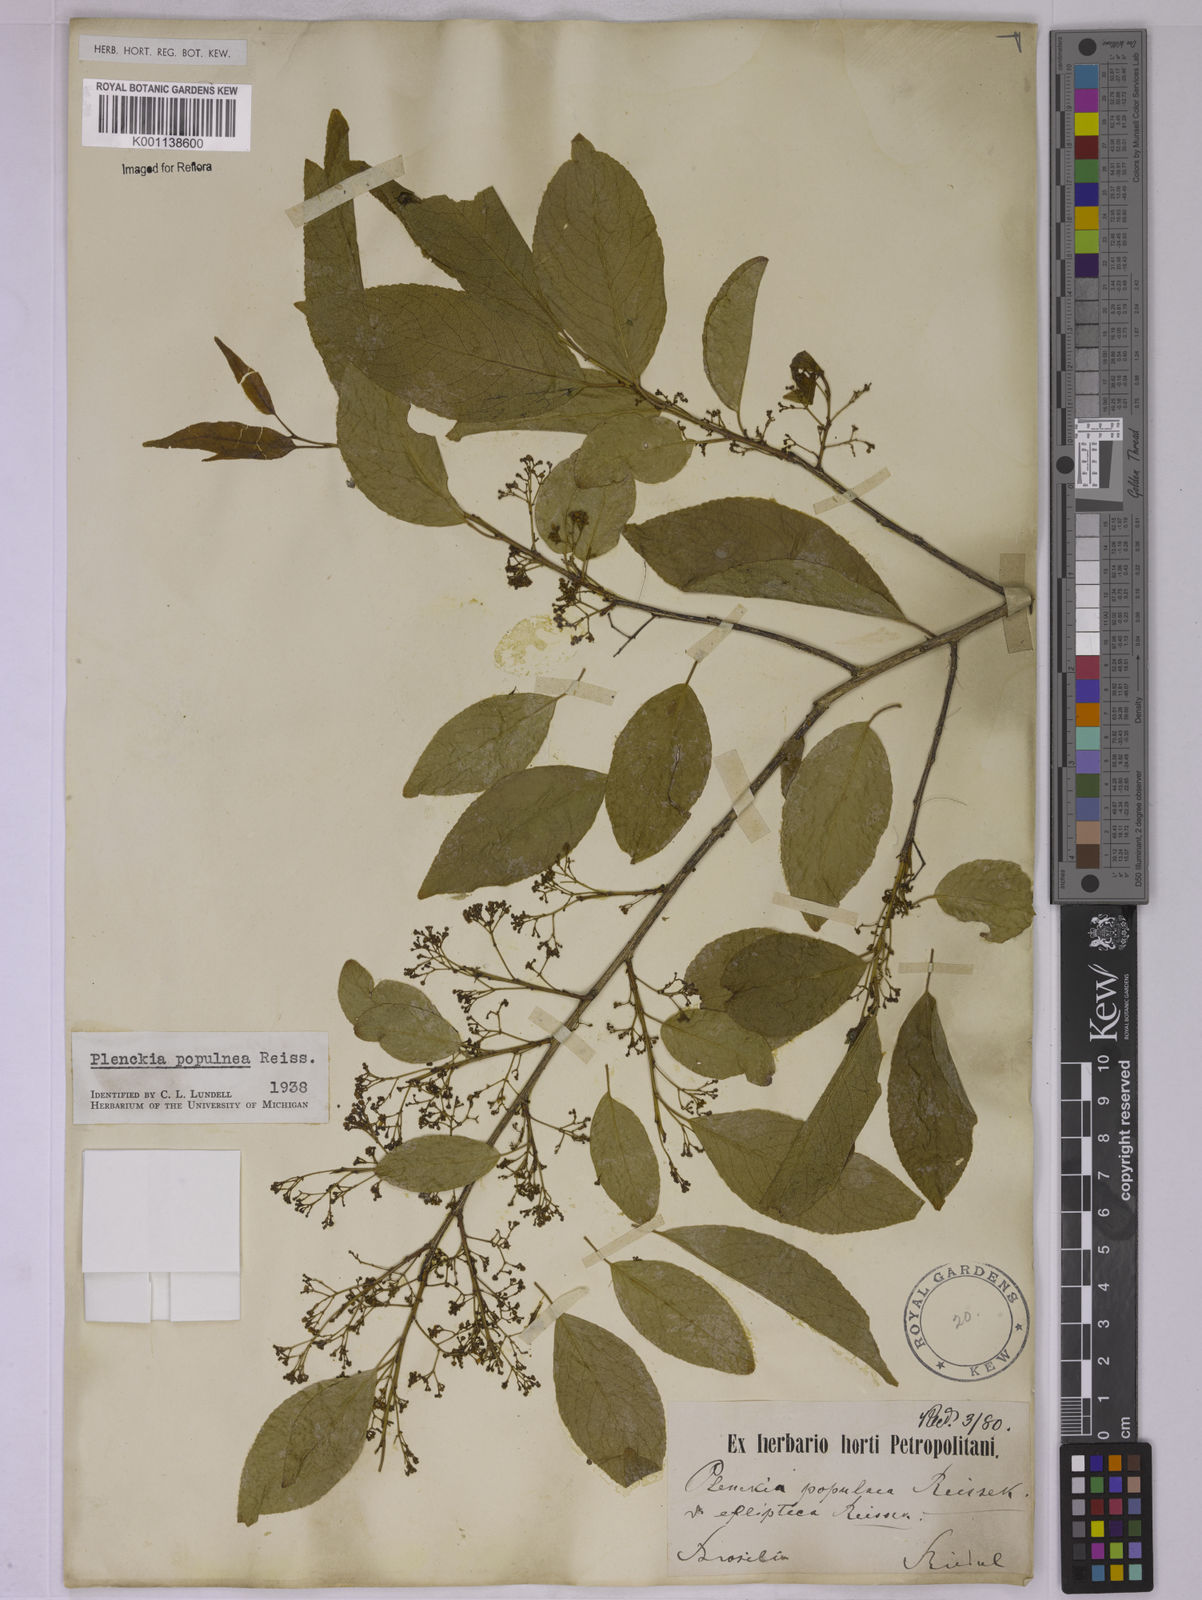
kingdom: Plantae
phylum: Tracheophyta
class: Magnoliopsida
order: Celastrales
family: Celastraceae
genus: Plenckia
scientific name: Plenckia populnea
